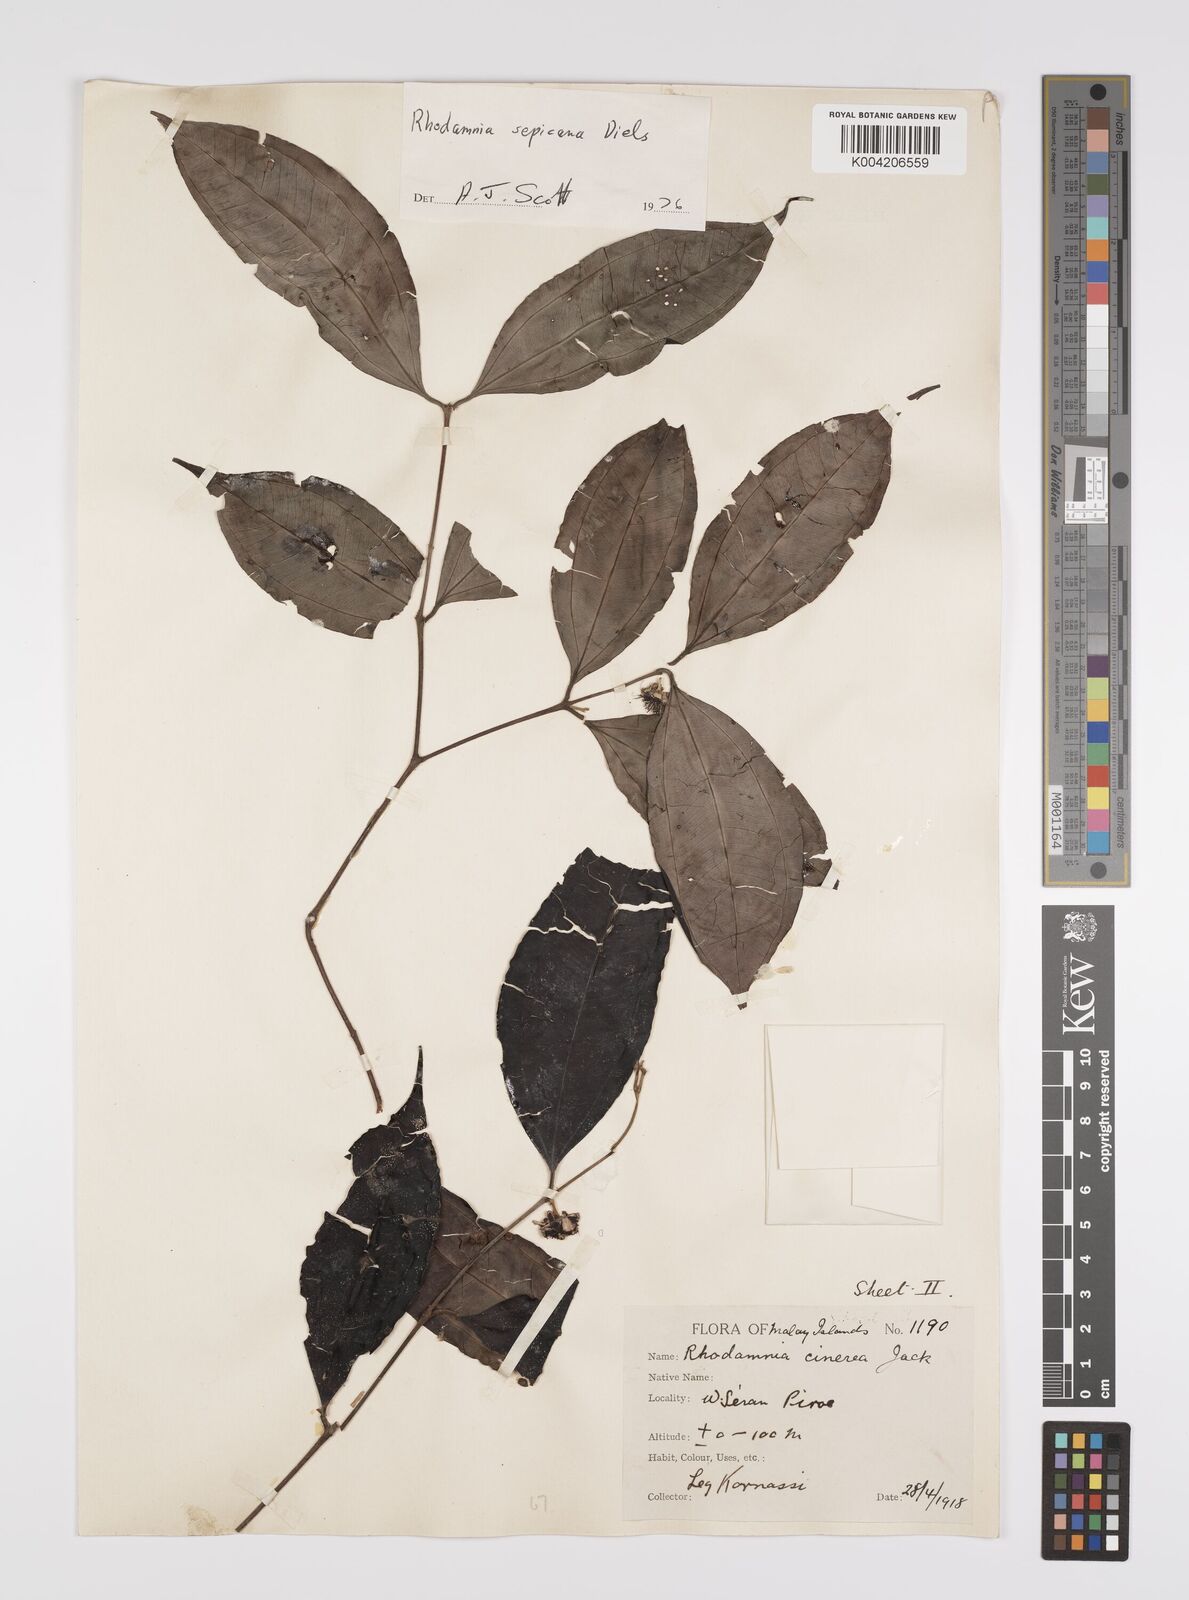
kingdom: Plantae
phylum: Tracheophyta
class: Magnoliopsida
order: Myrtales
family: Myrtaceae
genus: Rhodamnia
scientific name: Rhodamnia sepicana
